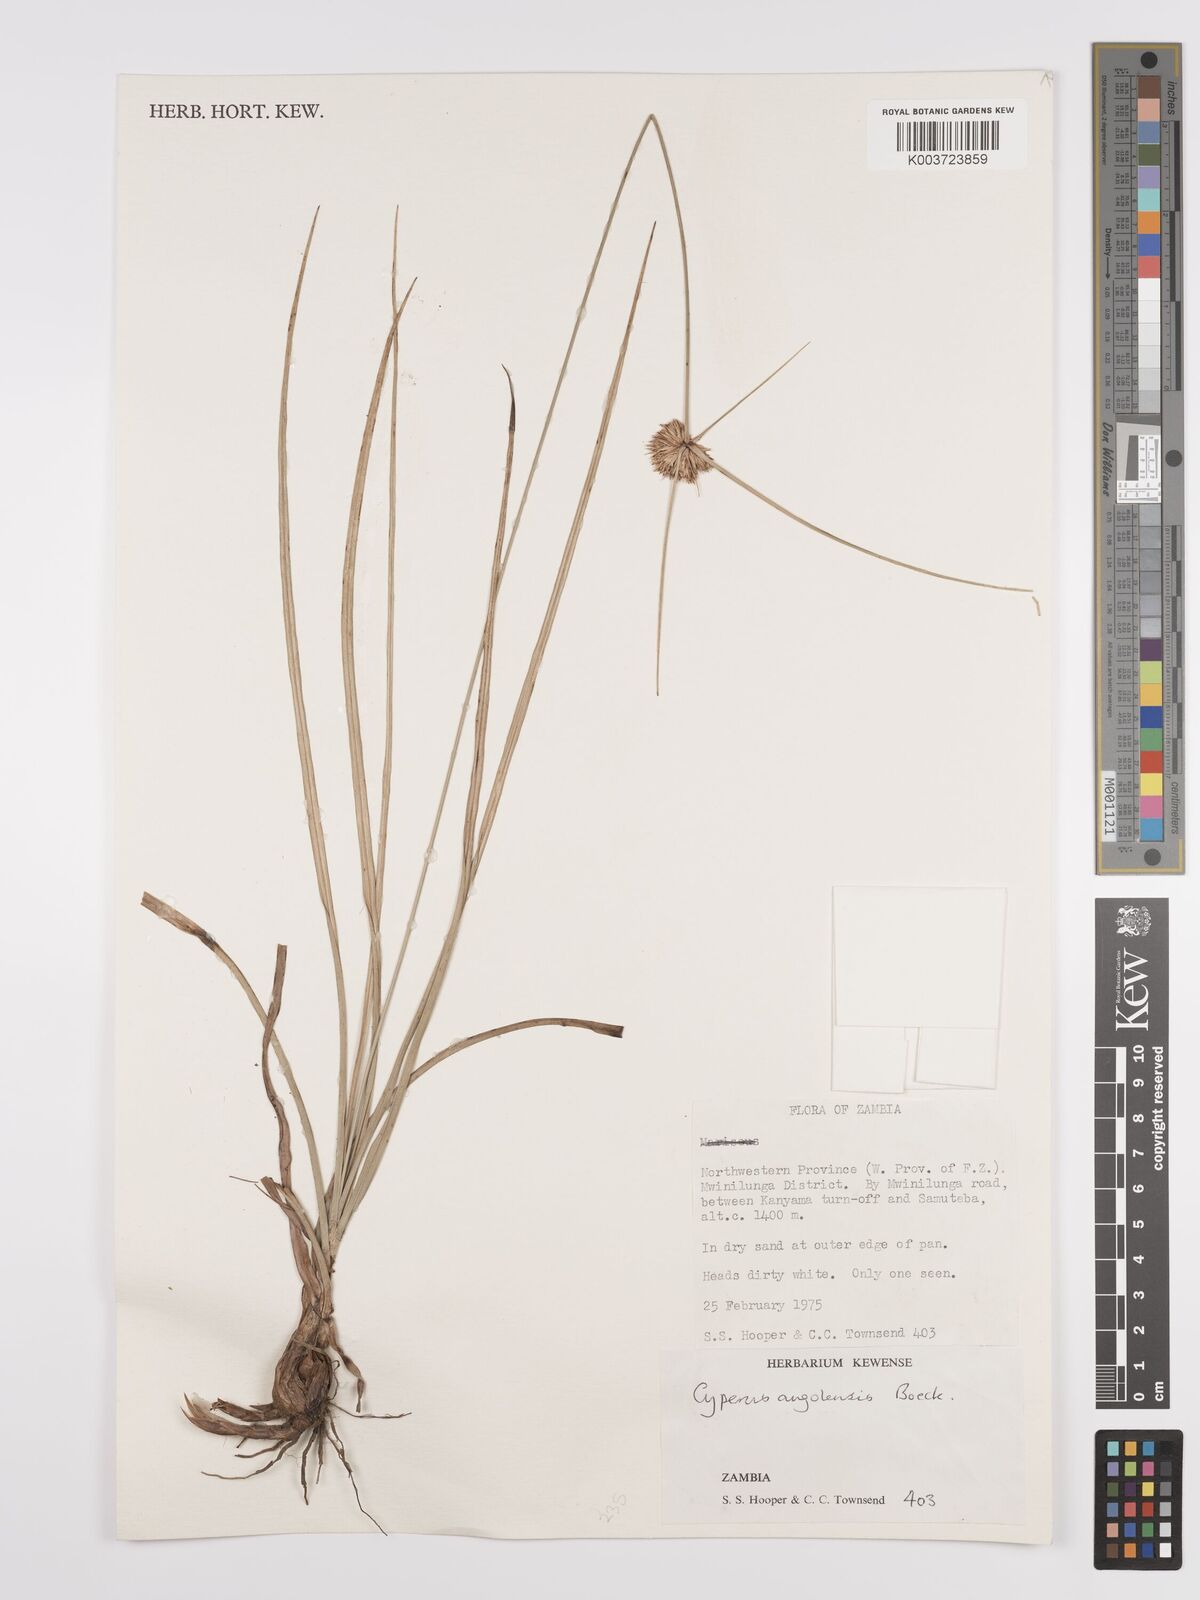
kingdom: Plantae
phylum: Tracheophyta
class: Liliopsida
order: Poales
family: Cyperaceae
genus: Cyperus
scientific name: Cyperus angolensis
